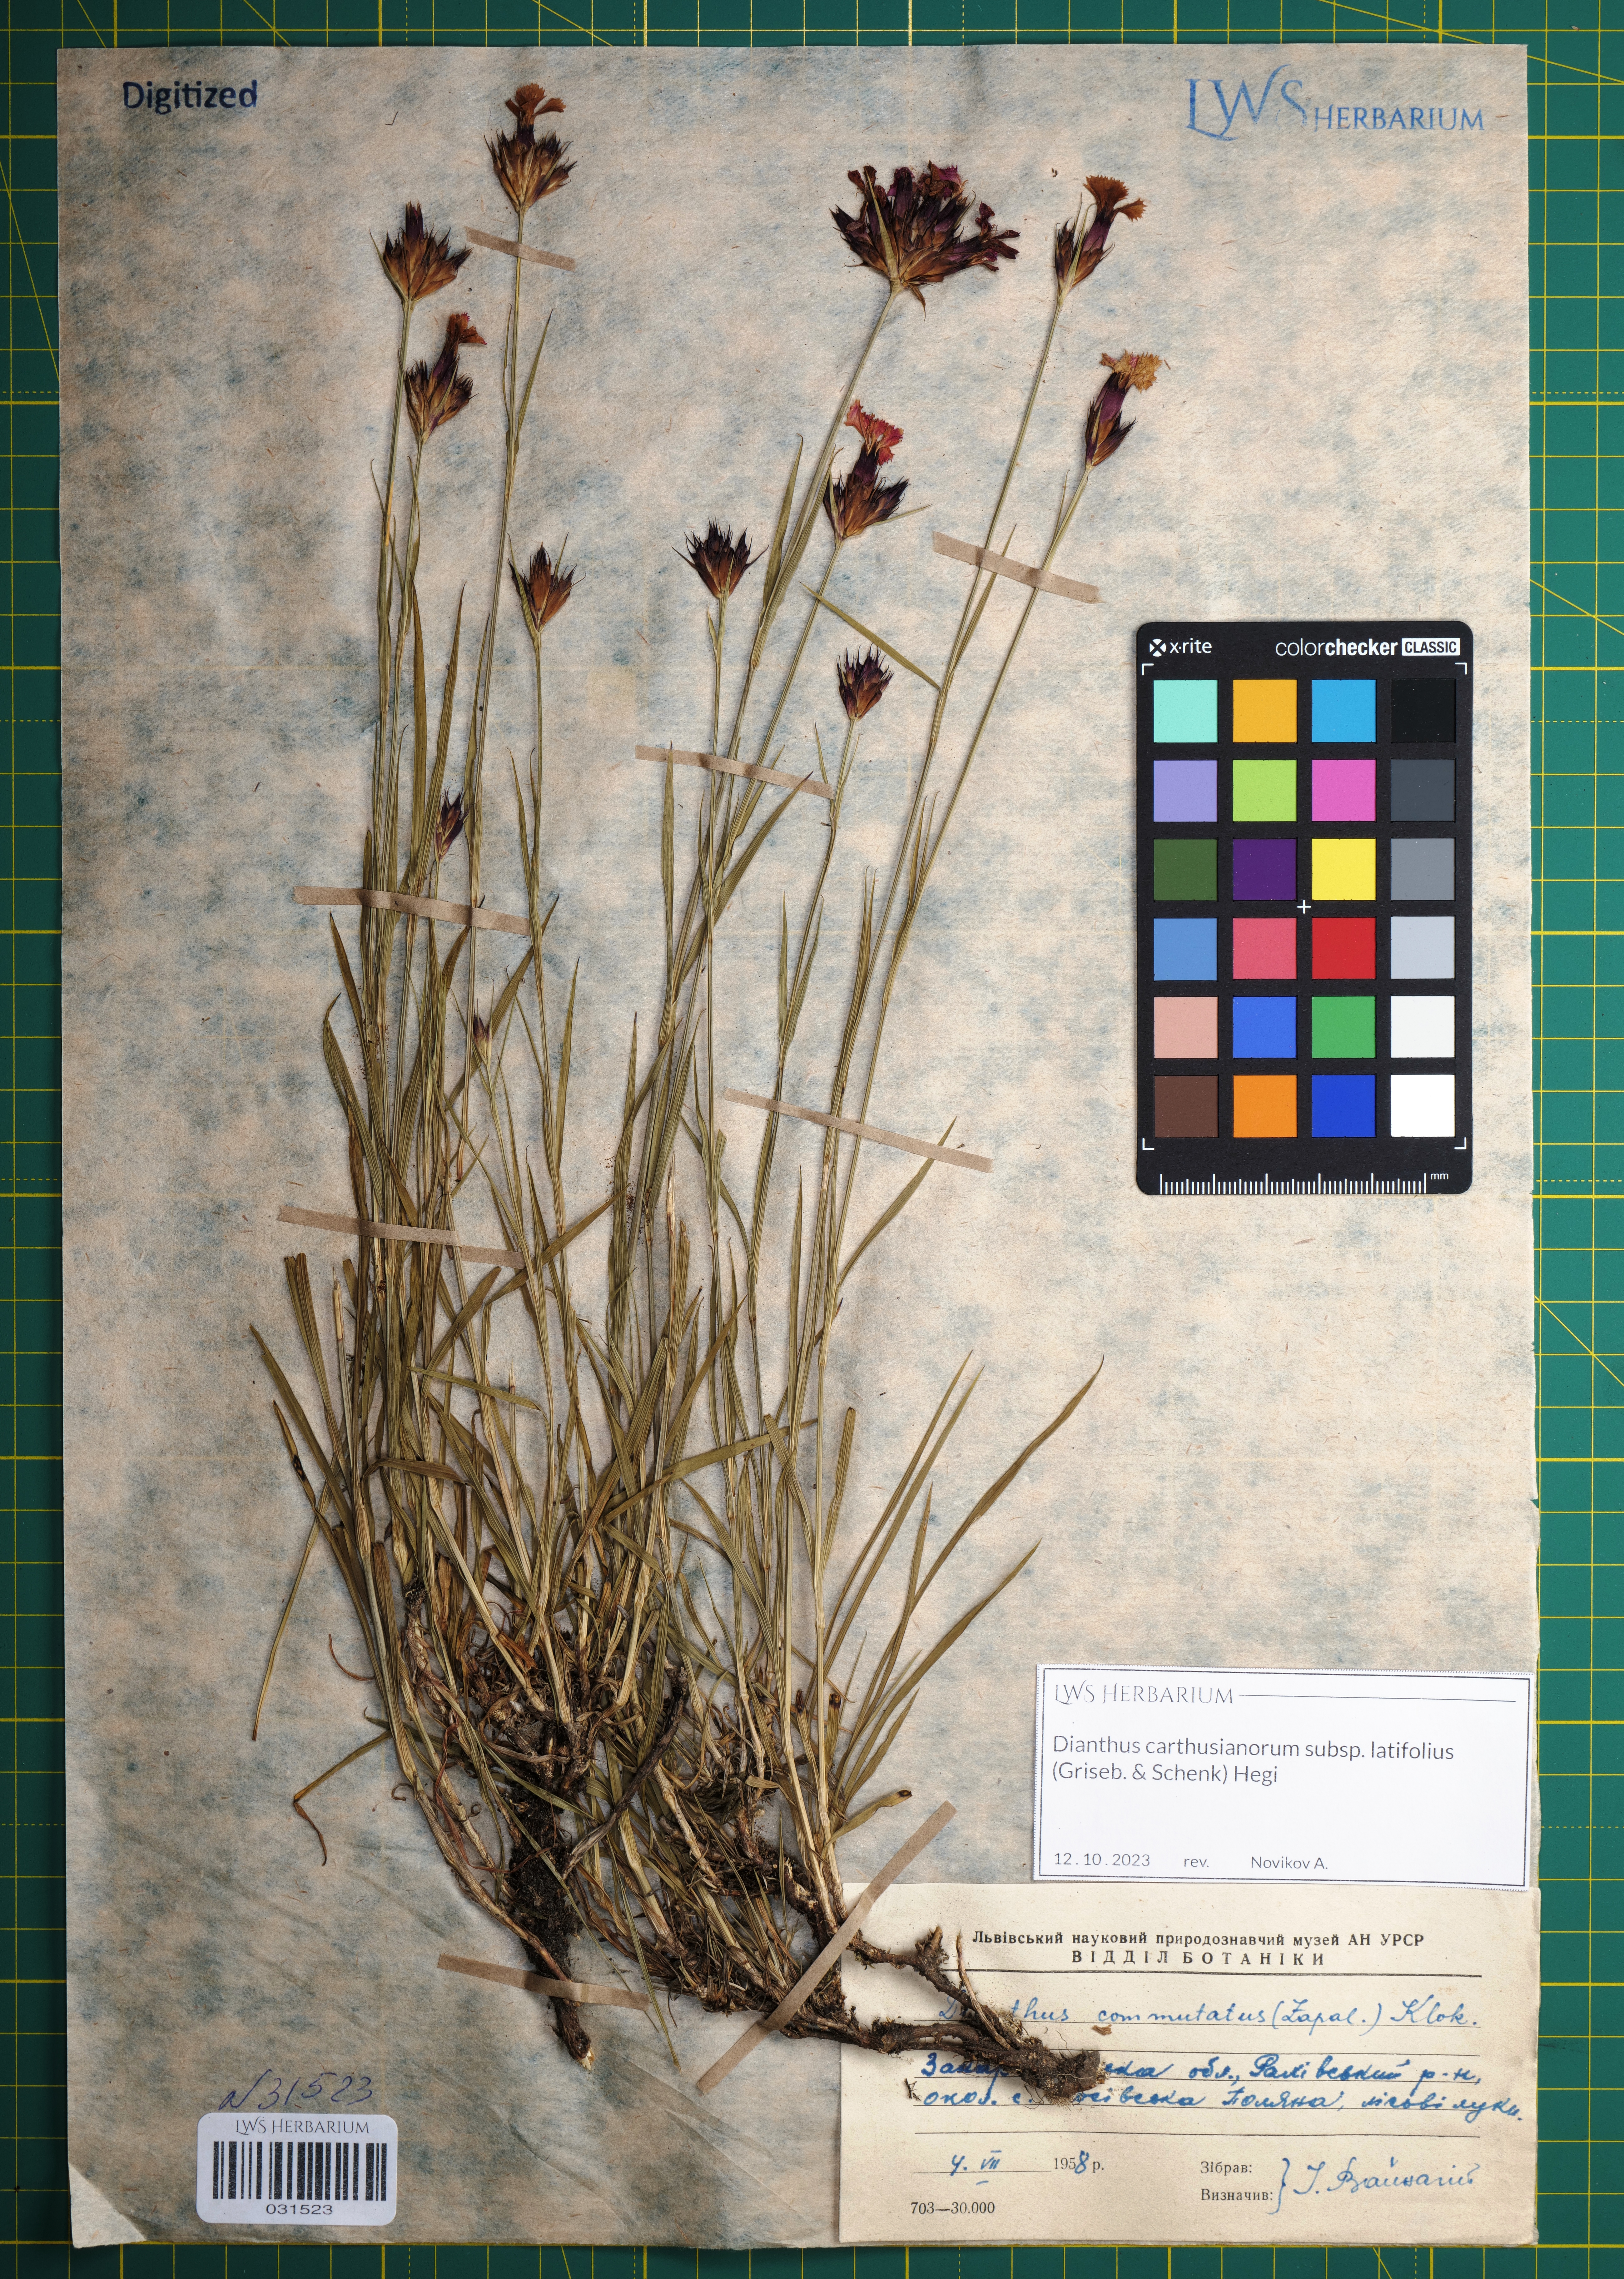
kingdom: Plantae
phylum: Tracheophyta
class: Magnoliopsida
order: Caryophyllales
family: Caryophyllaceae
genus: Dianthus
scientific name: Dianthus carthusianorum
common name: Carthusian pink
